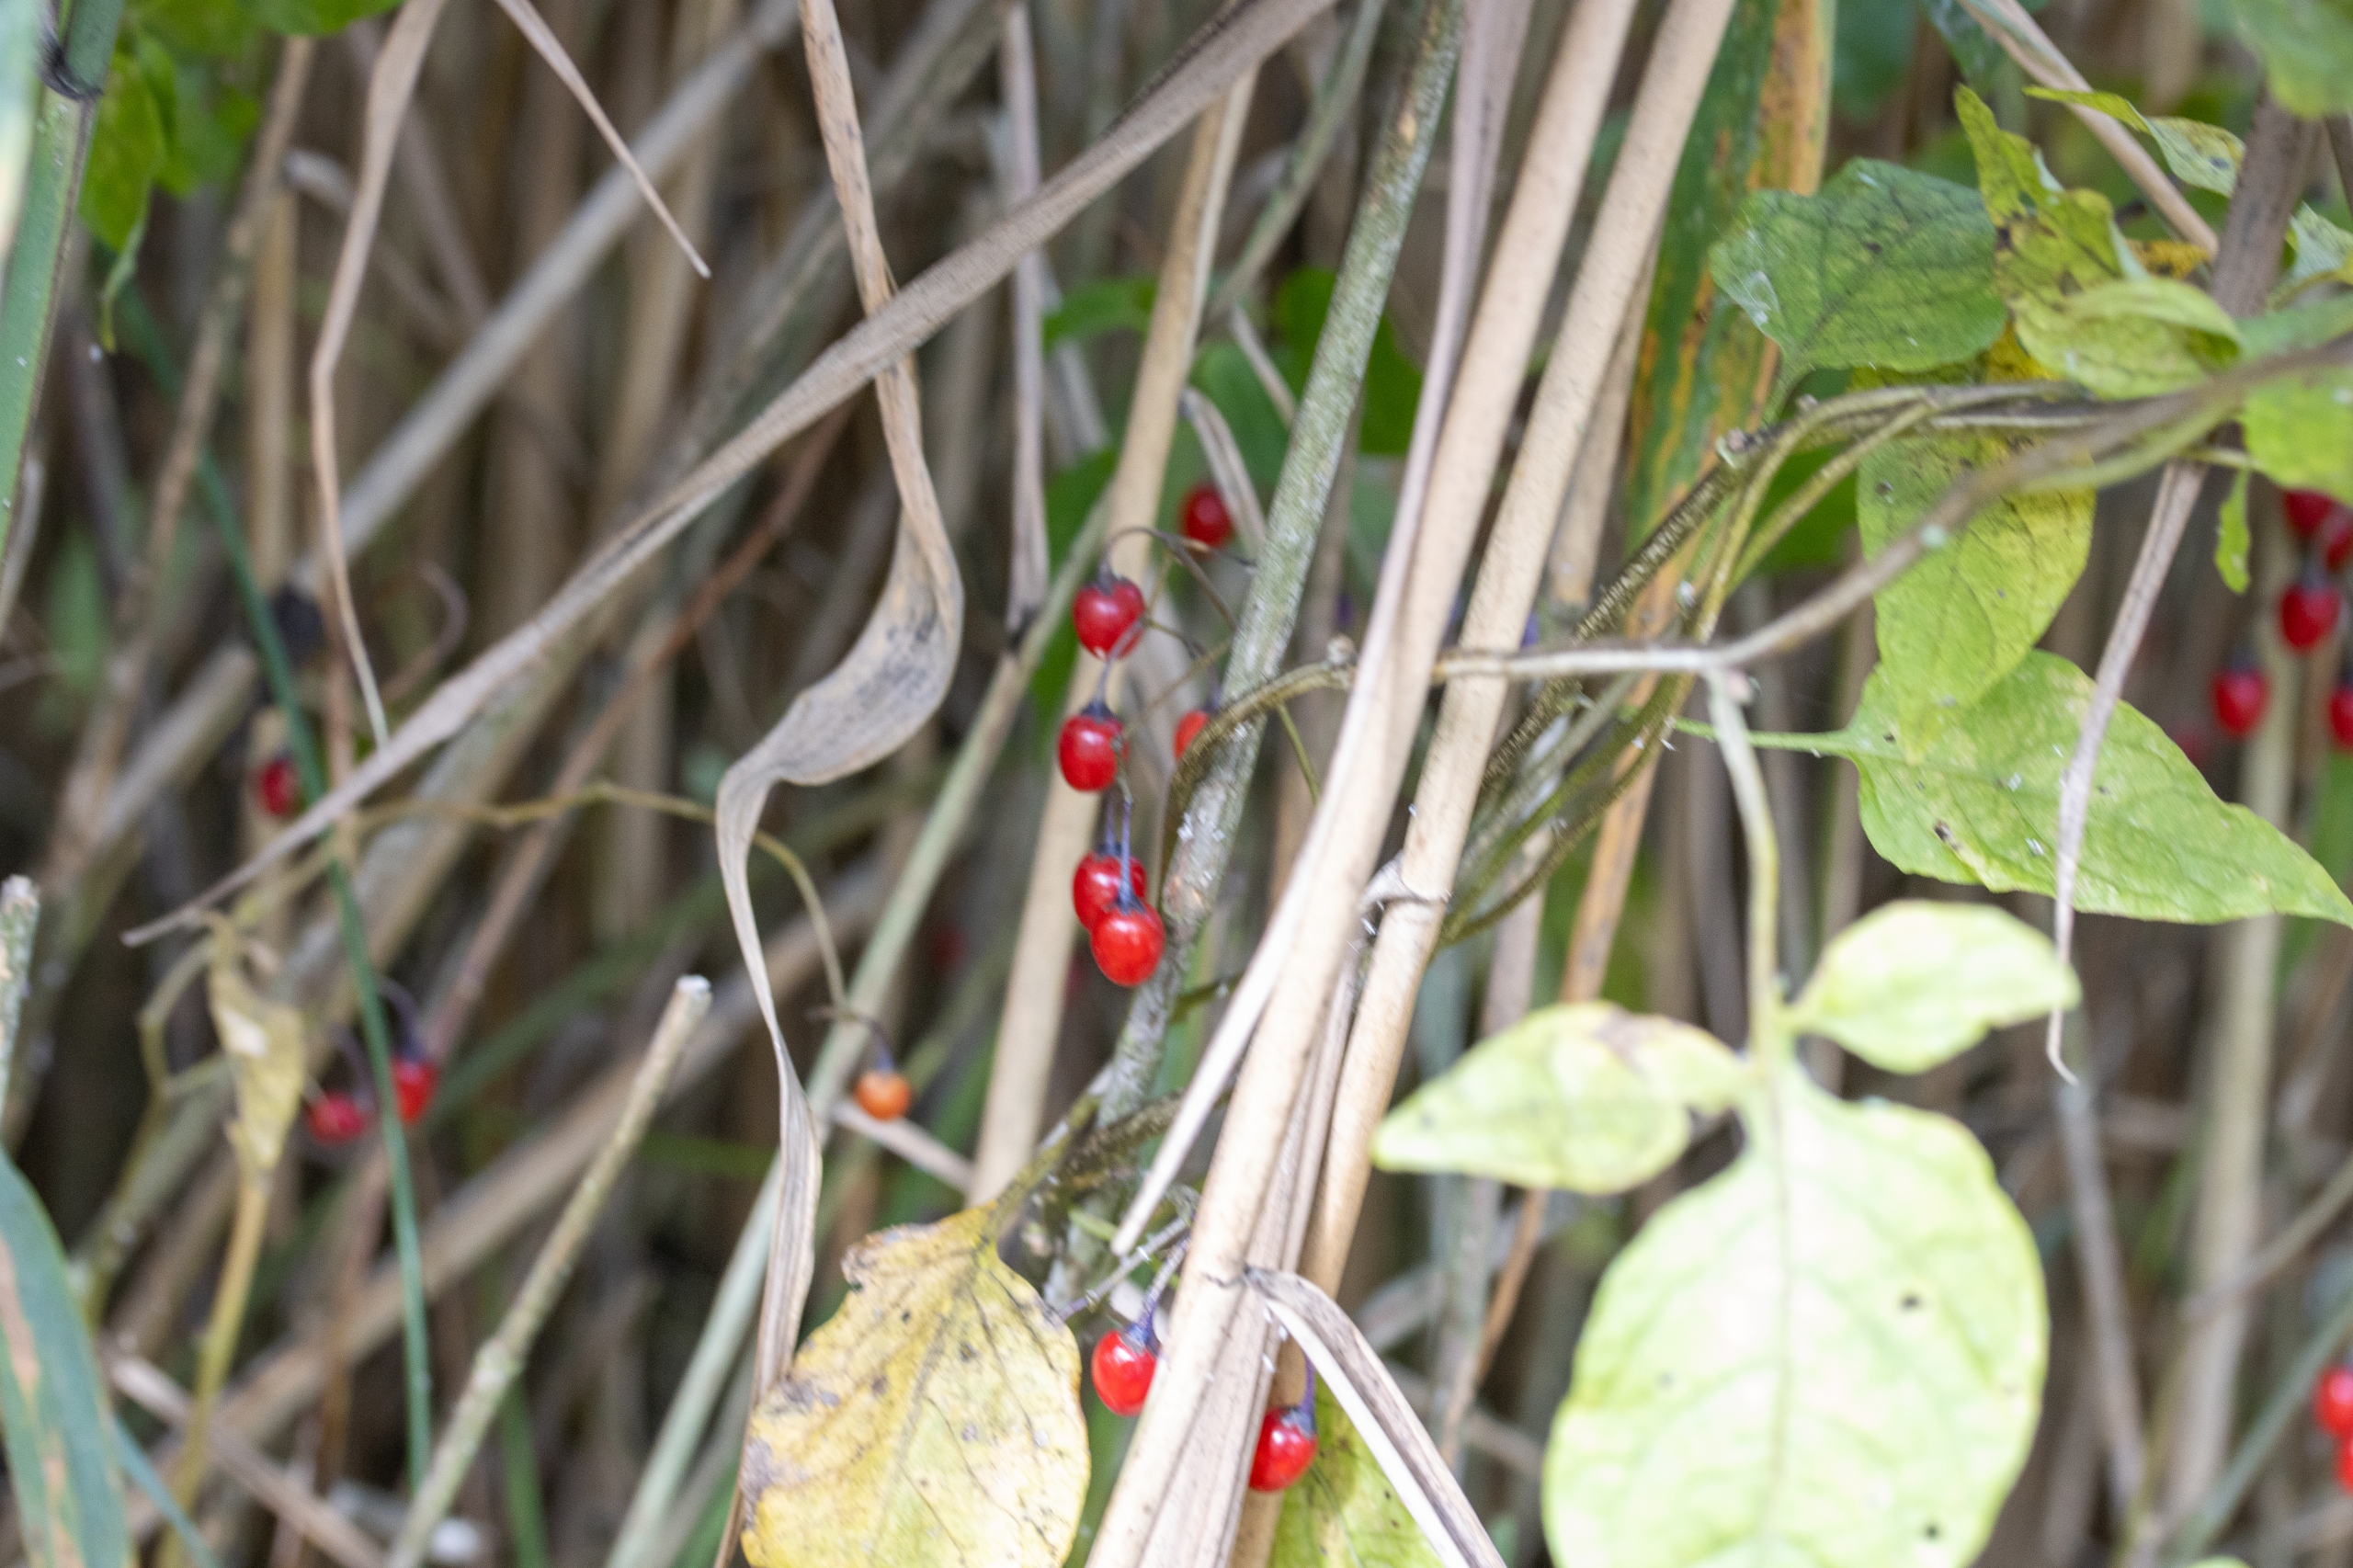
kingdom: Plantae
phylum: Tracheophyta
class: Magnoliopsida
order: Solanales
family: Solanaceae
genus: Solanum
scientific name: Solanum dulcamara
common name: Bittersød natskygge
